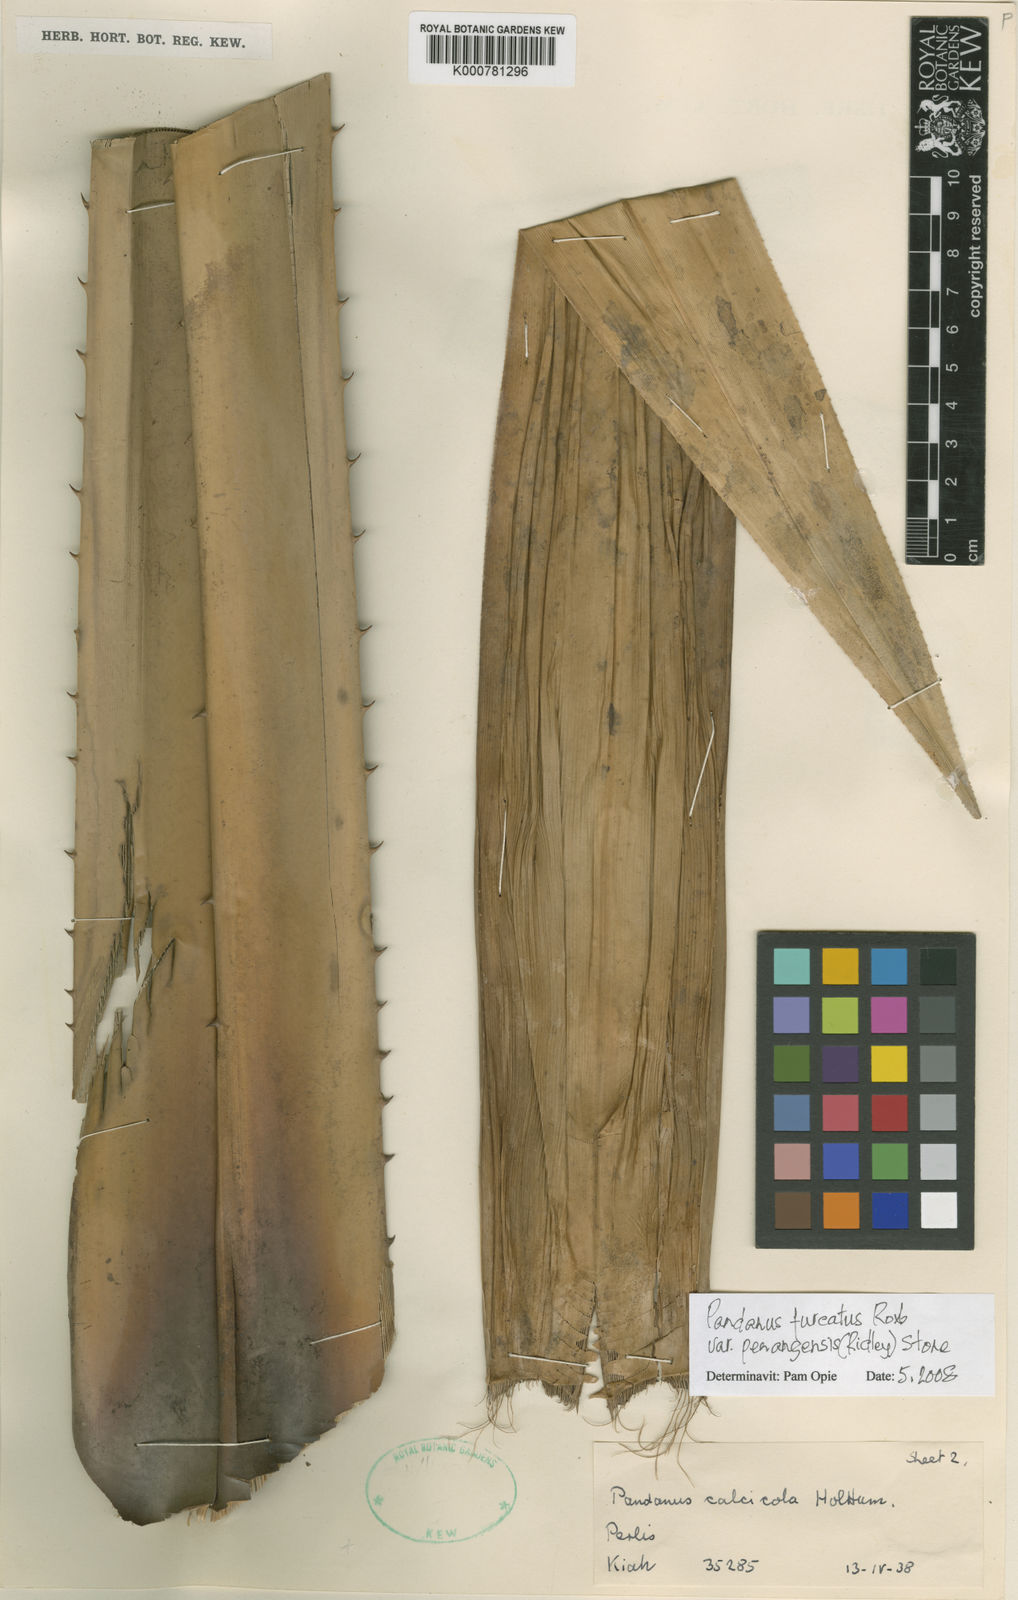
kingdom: Plantae
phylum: Tracheophyta
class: Liliopsida
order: Pandanales
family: Pandanaceae
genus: Pandanus
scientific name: Pandanus penangensis
